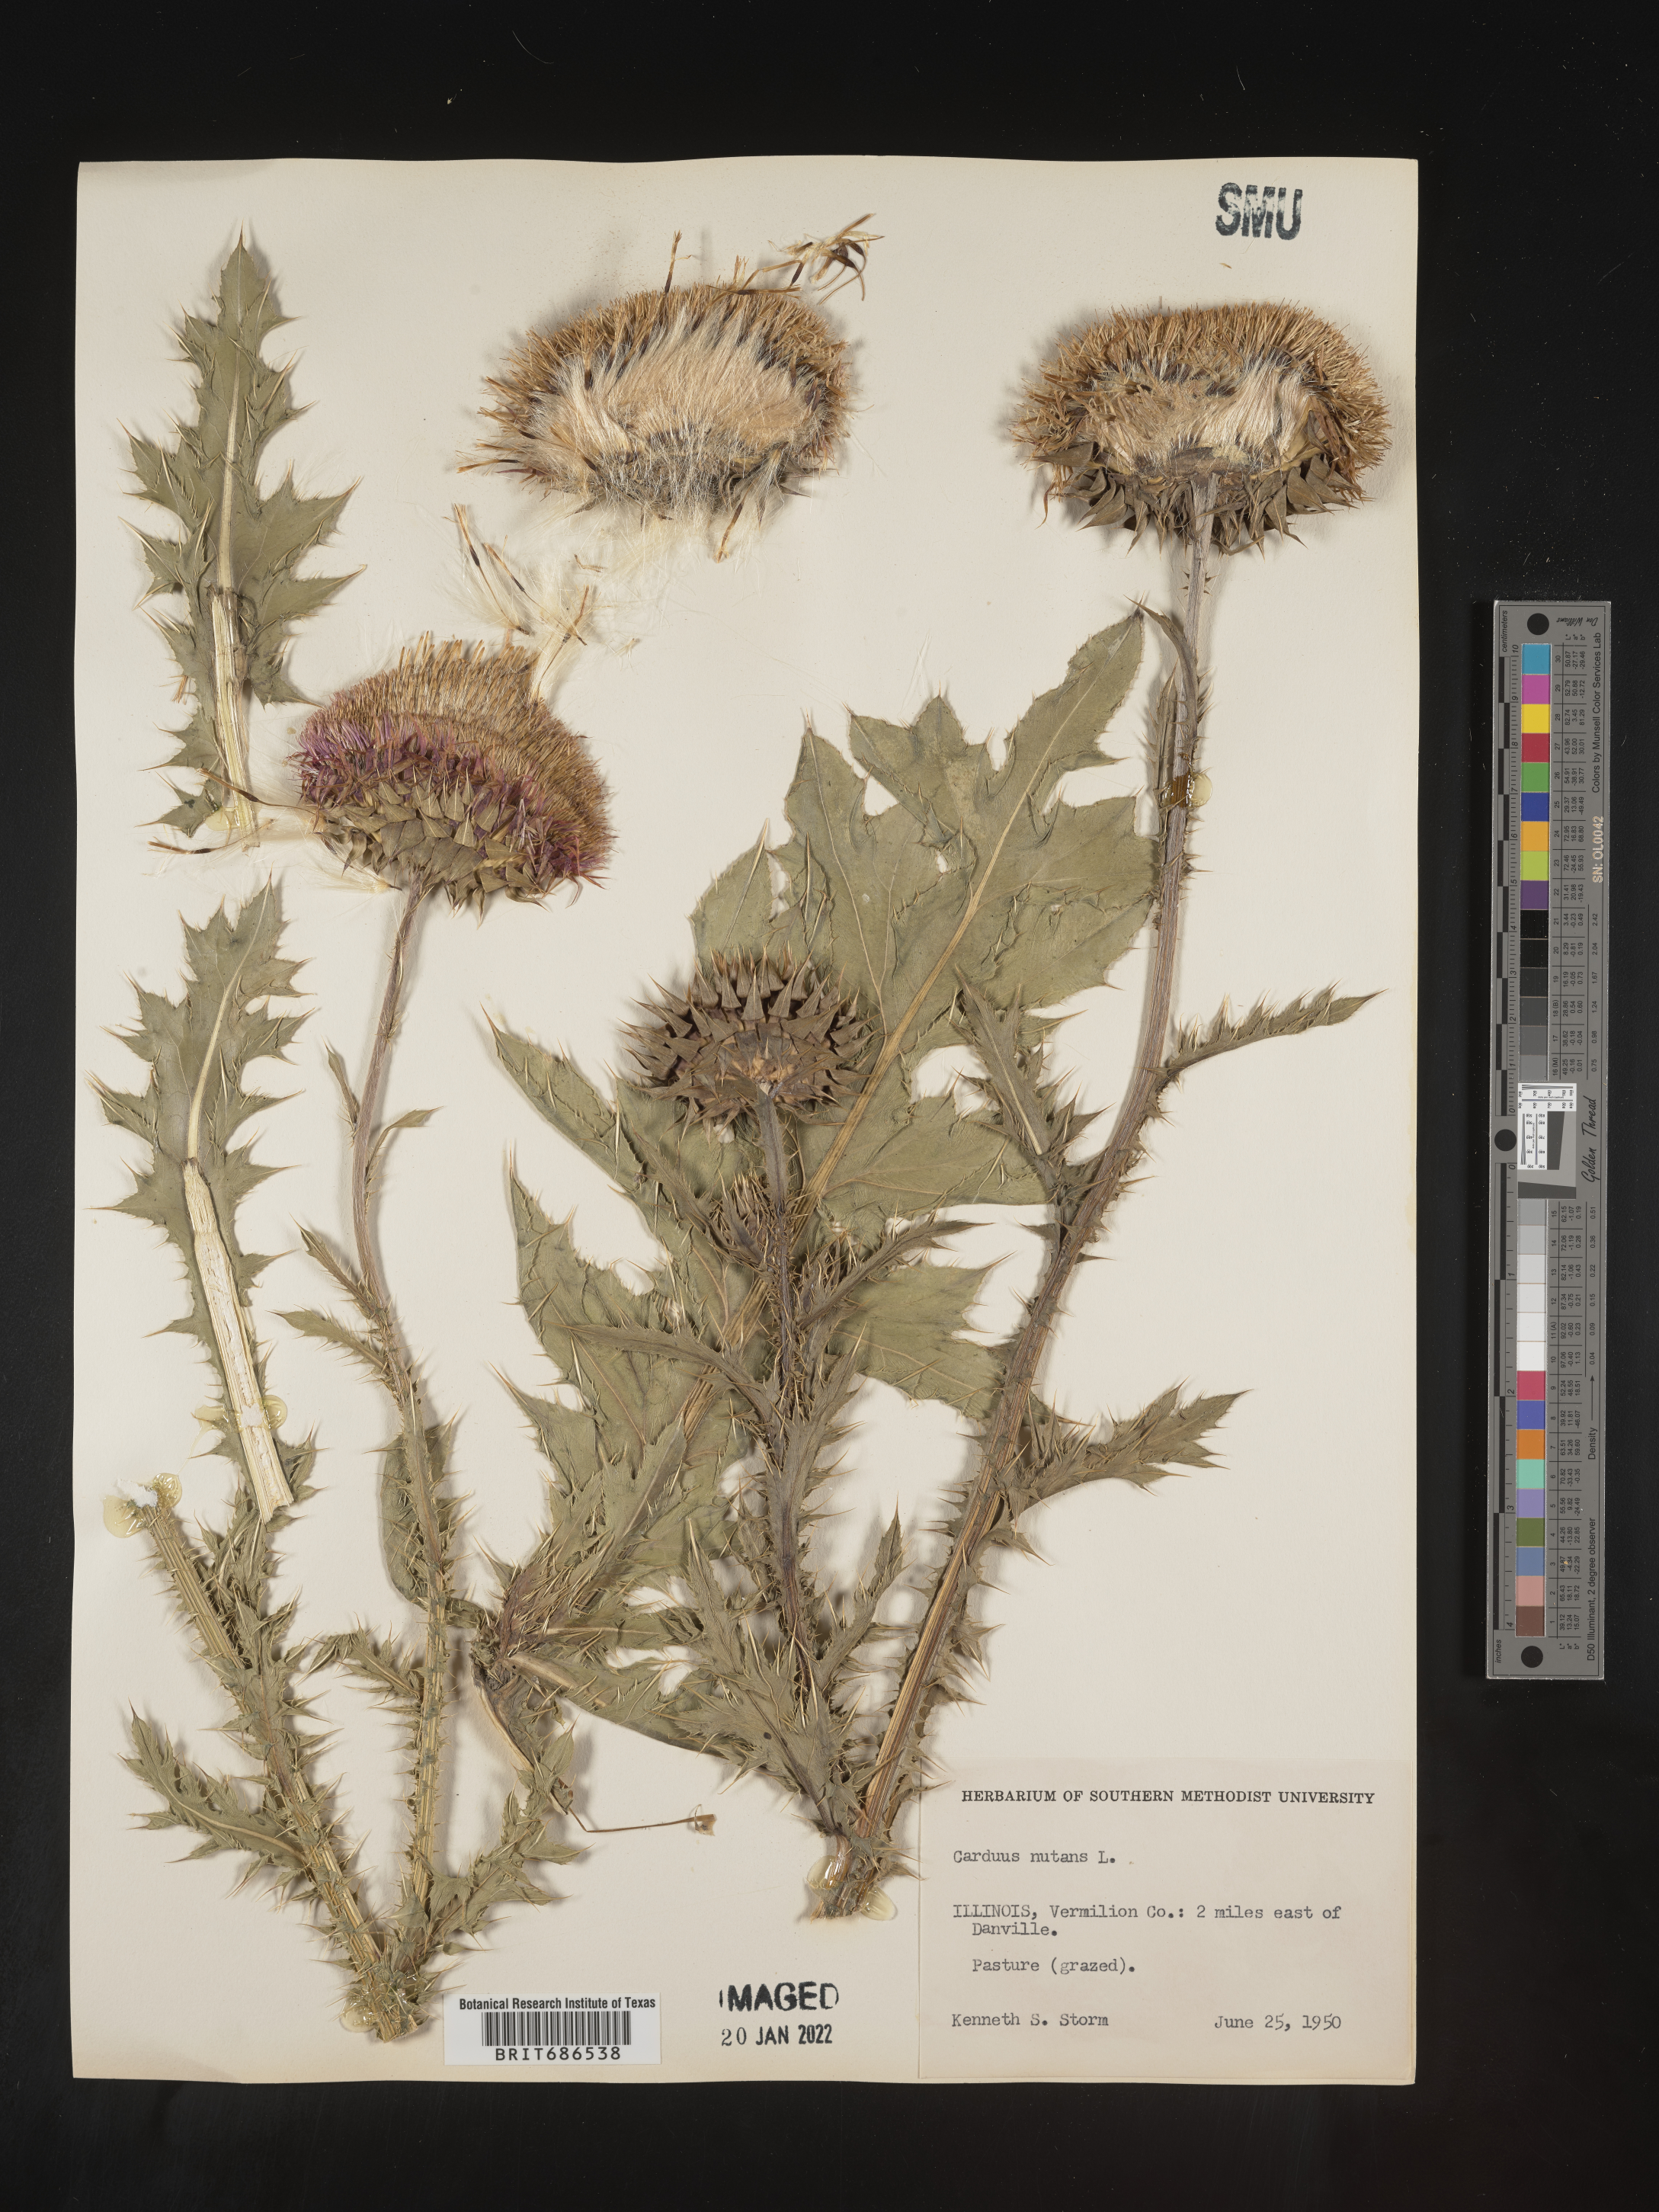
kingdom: Plantae
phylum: Tracheophyta
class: Magnoliopsida
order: Asterales
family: Asteraceae
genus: Carduus
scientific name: Carduus nutans
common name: Musk thistle
